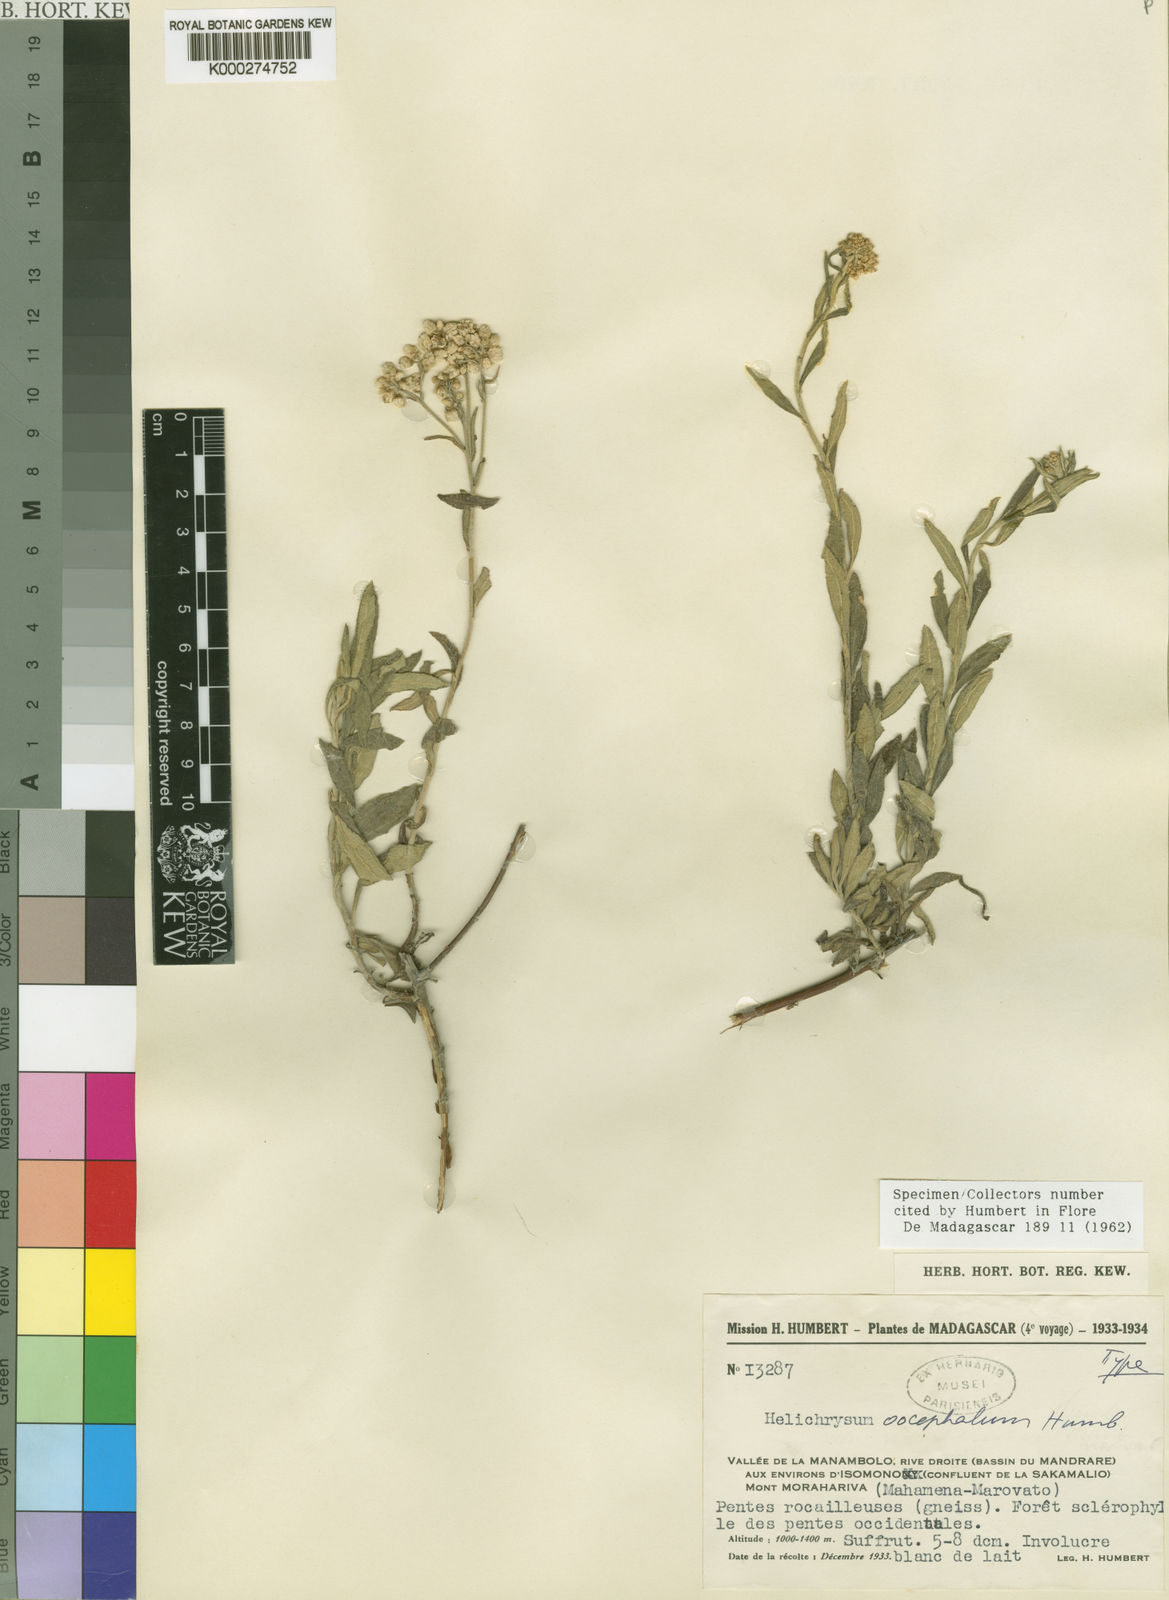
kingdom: Plantae
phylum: Tracheophyta
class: Magnoliopsida
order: Asterales
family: Asteraceae
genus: Helichrysum
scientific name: Helichrysum neoachyrochnoides
